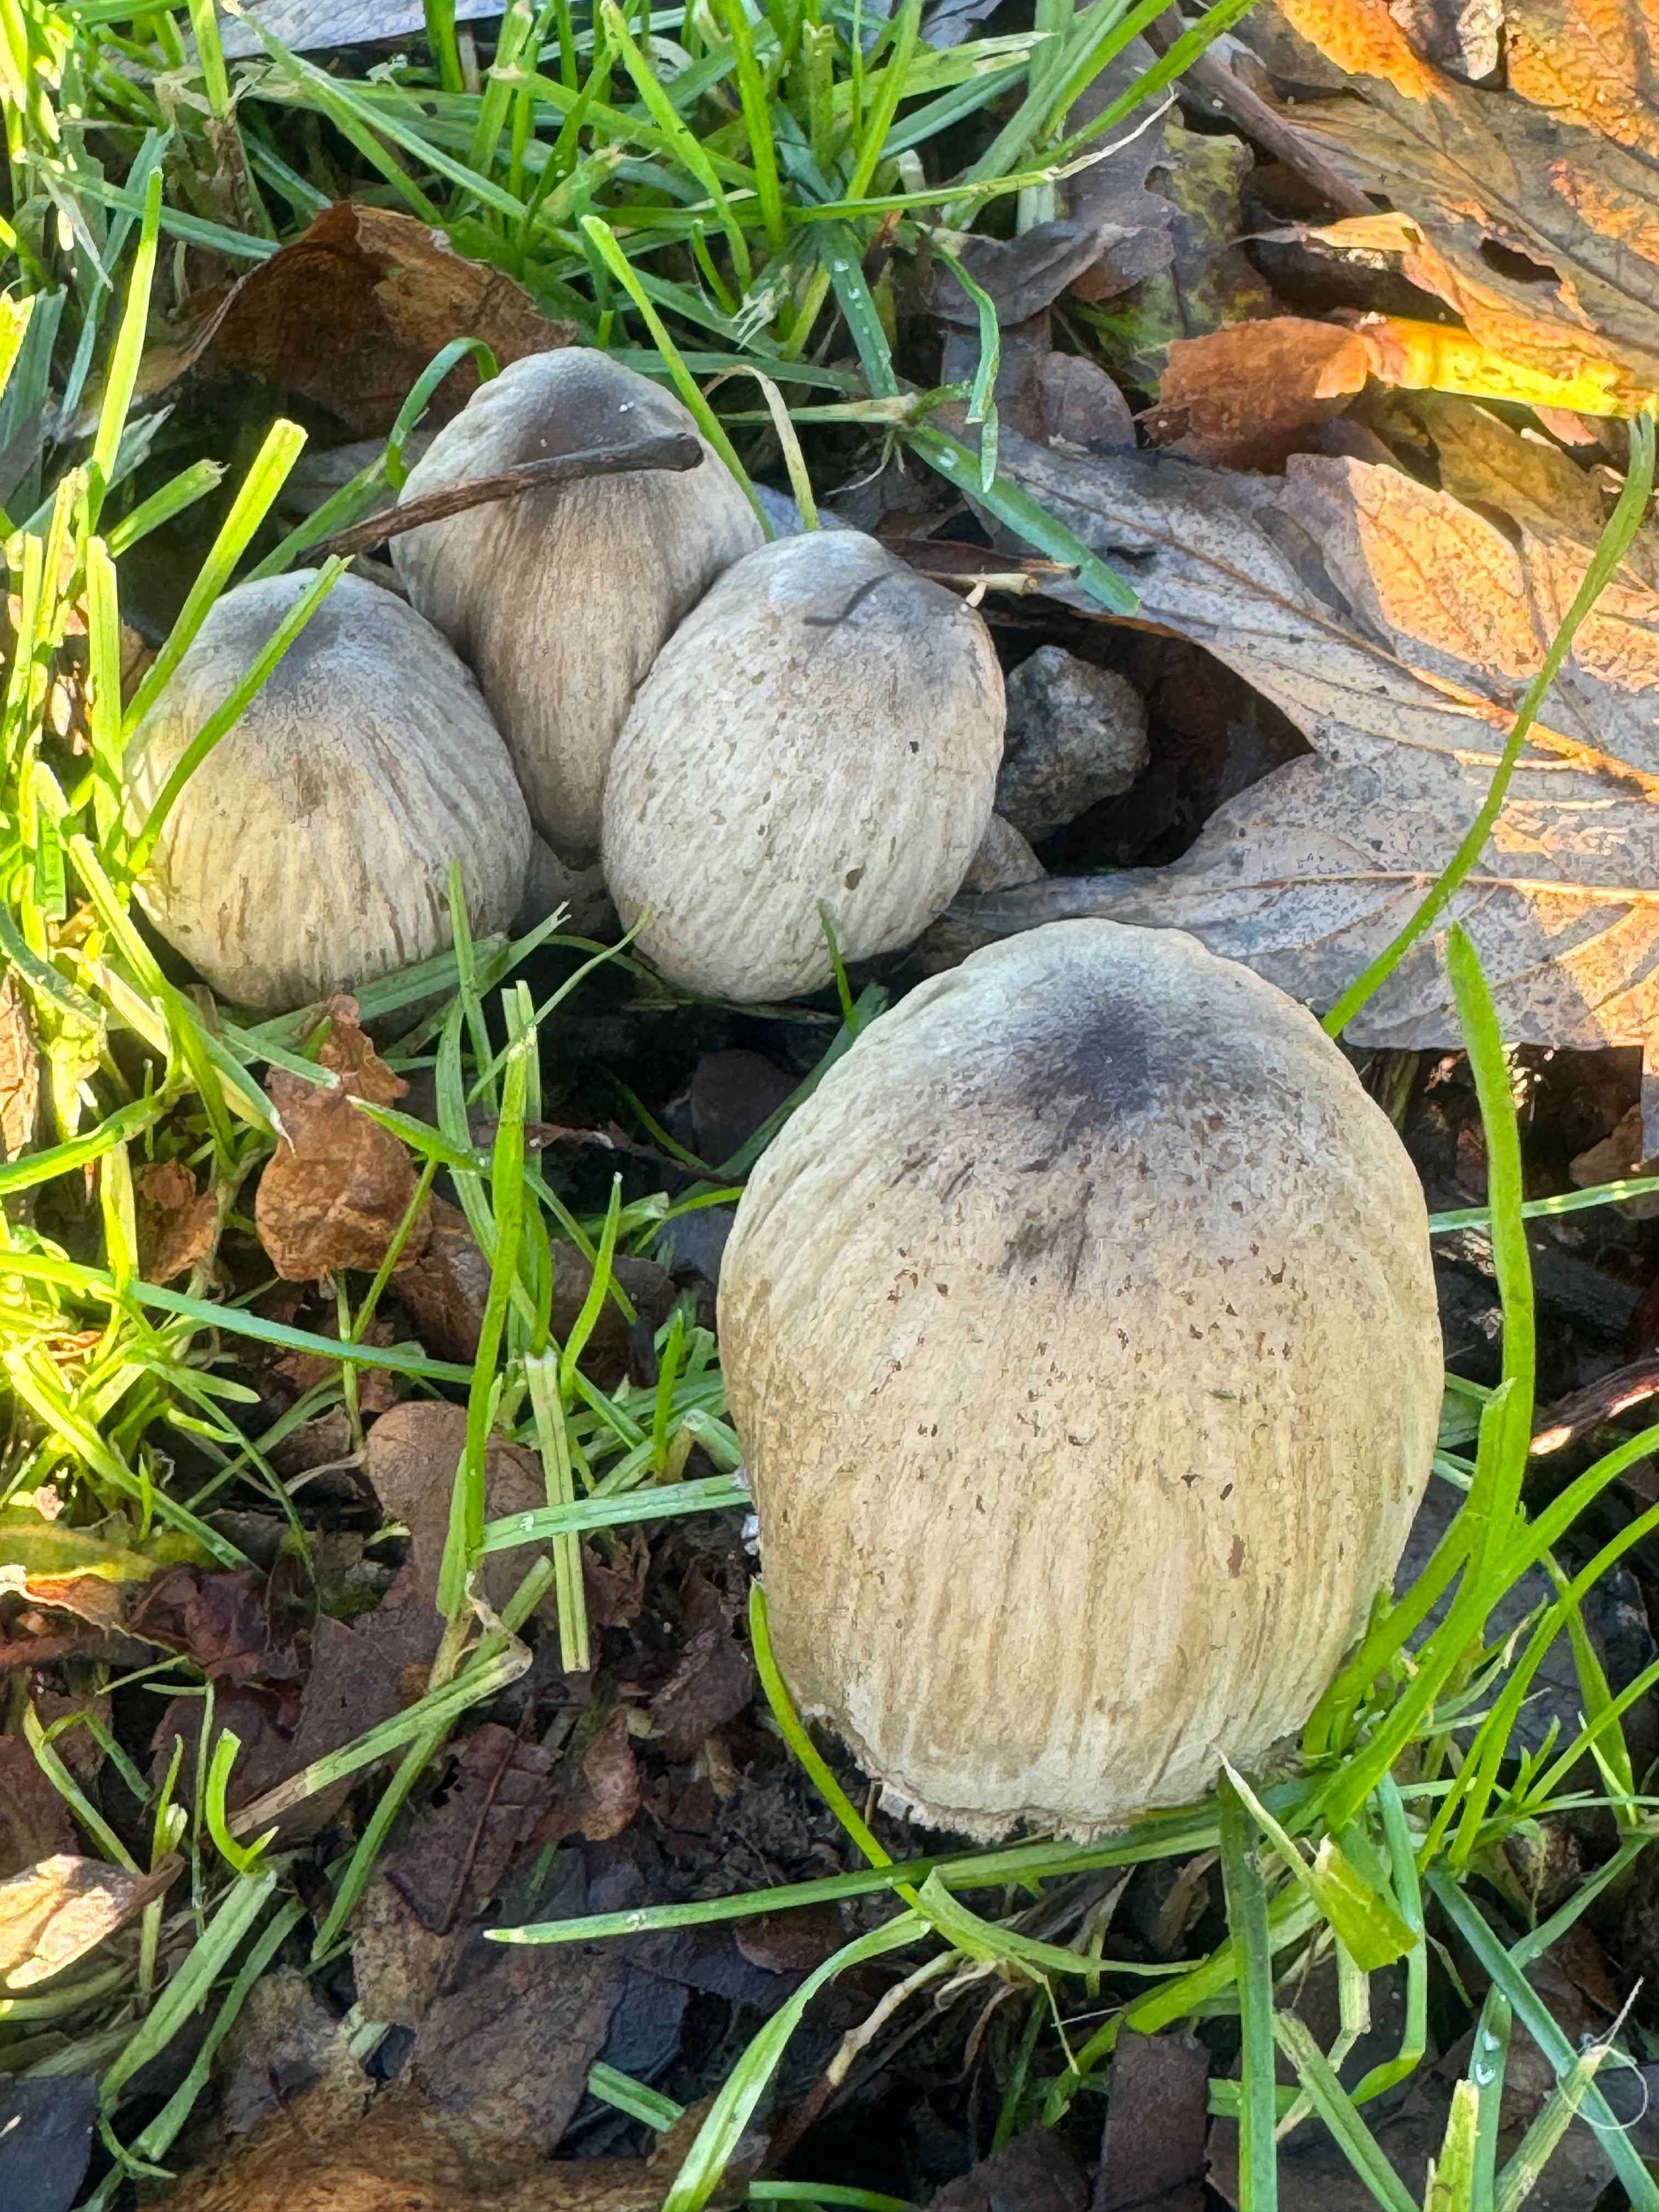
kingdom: Fungi
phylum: Basidiomycota
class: Agaricomycetes
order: Agaricales
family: Psathyrellaceae
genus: Coprinopsis
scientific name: Coprinopsis atramentaria
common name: almindelig blækhat
